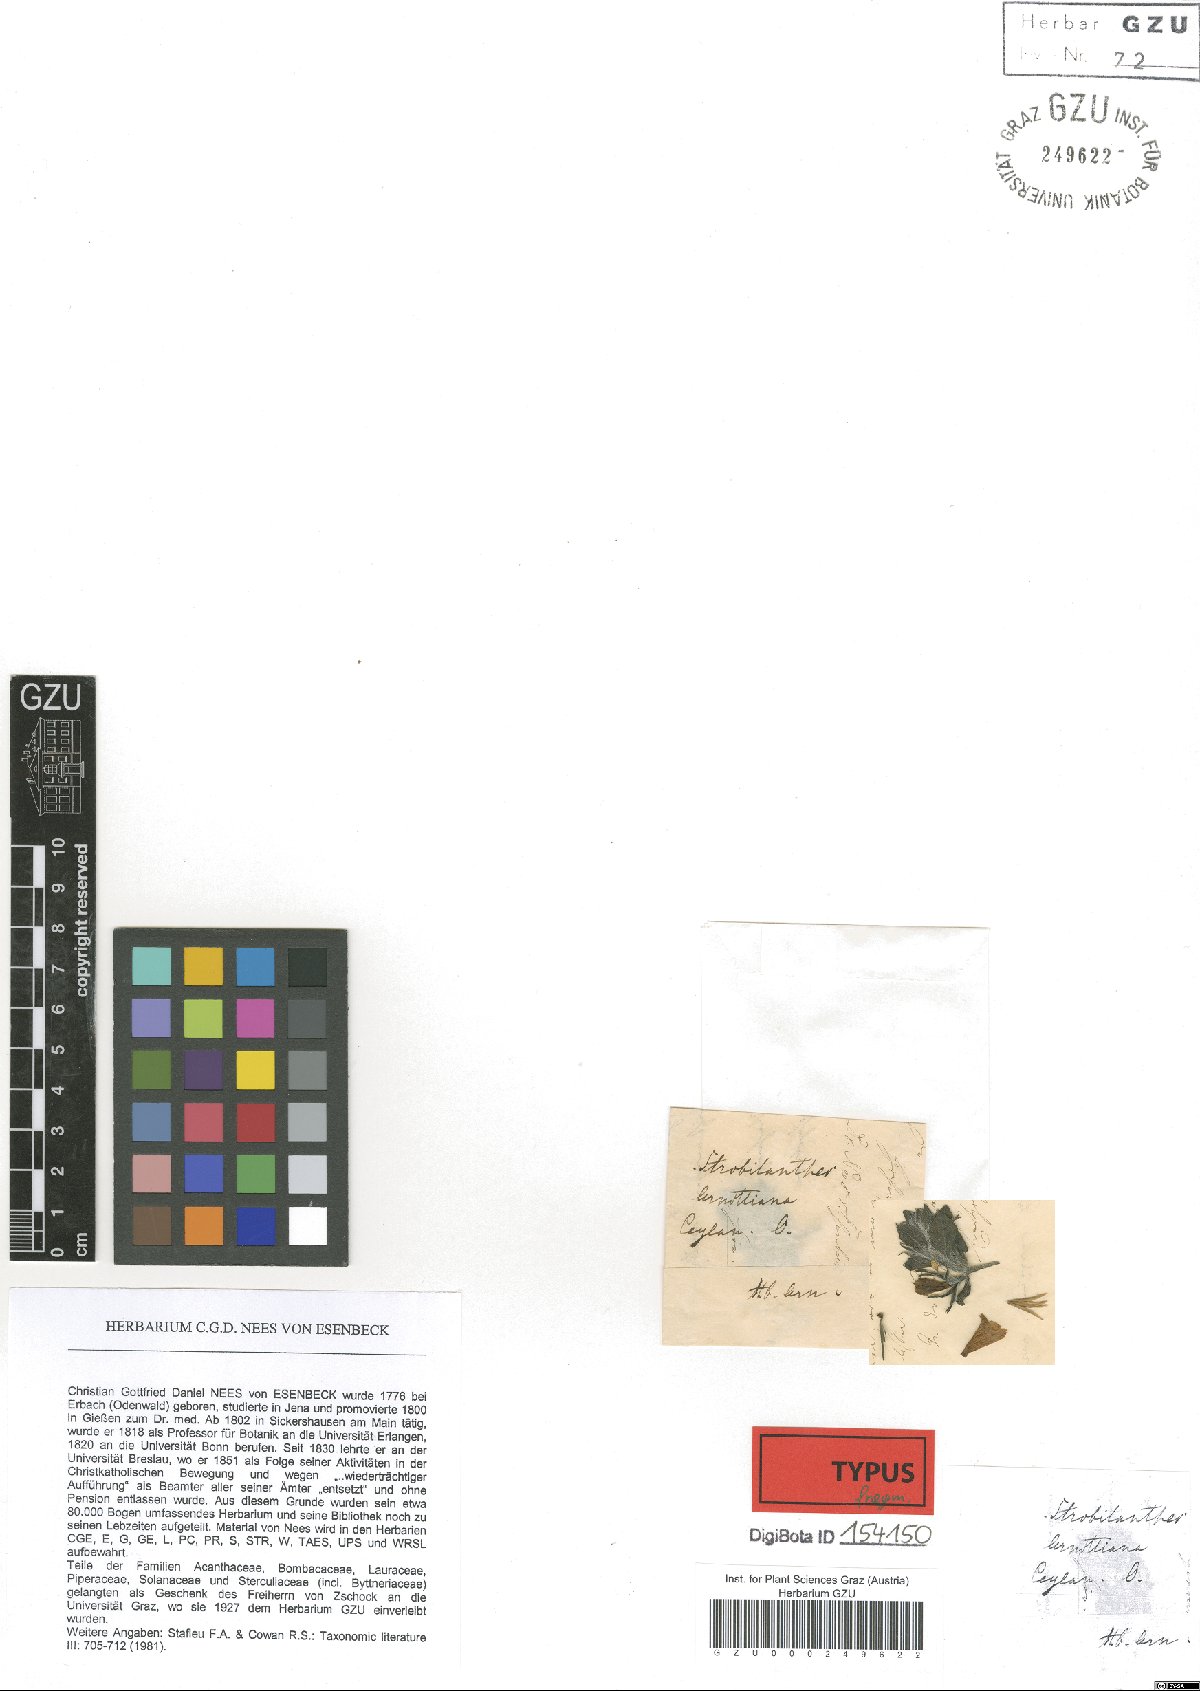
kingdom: Plantae
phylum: Tracheophyta
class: Magnoliopsida
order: Lamiales
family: Acanthaceae
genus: Strobilanthes
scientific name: Strobilanthes arnottiana
